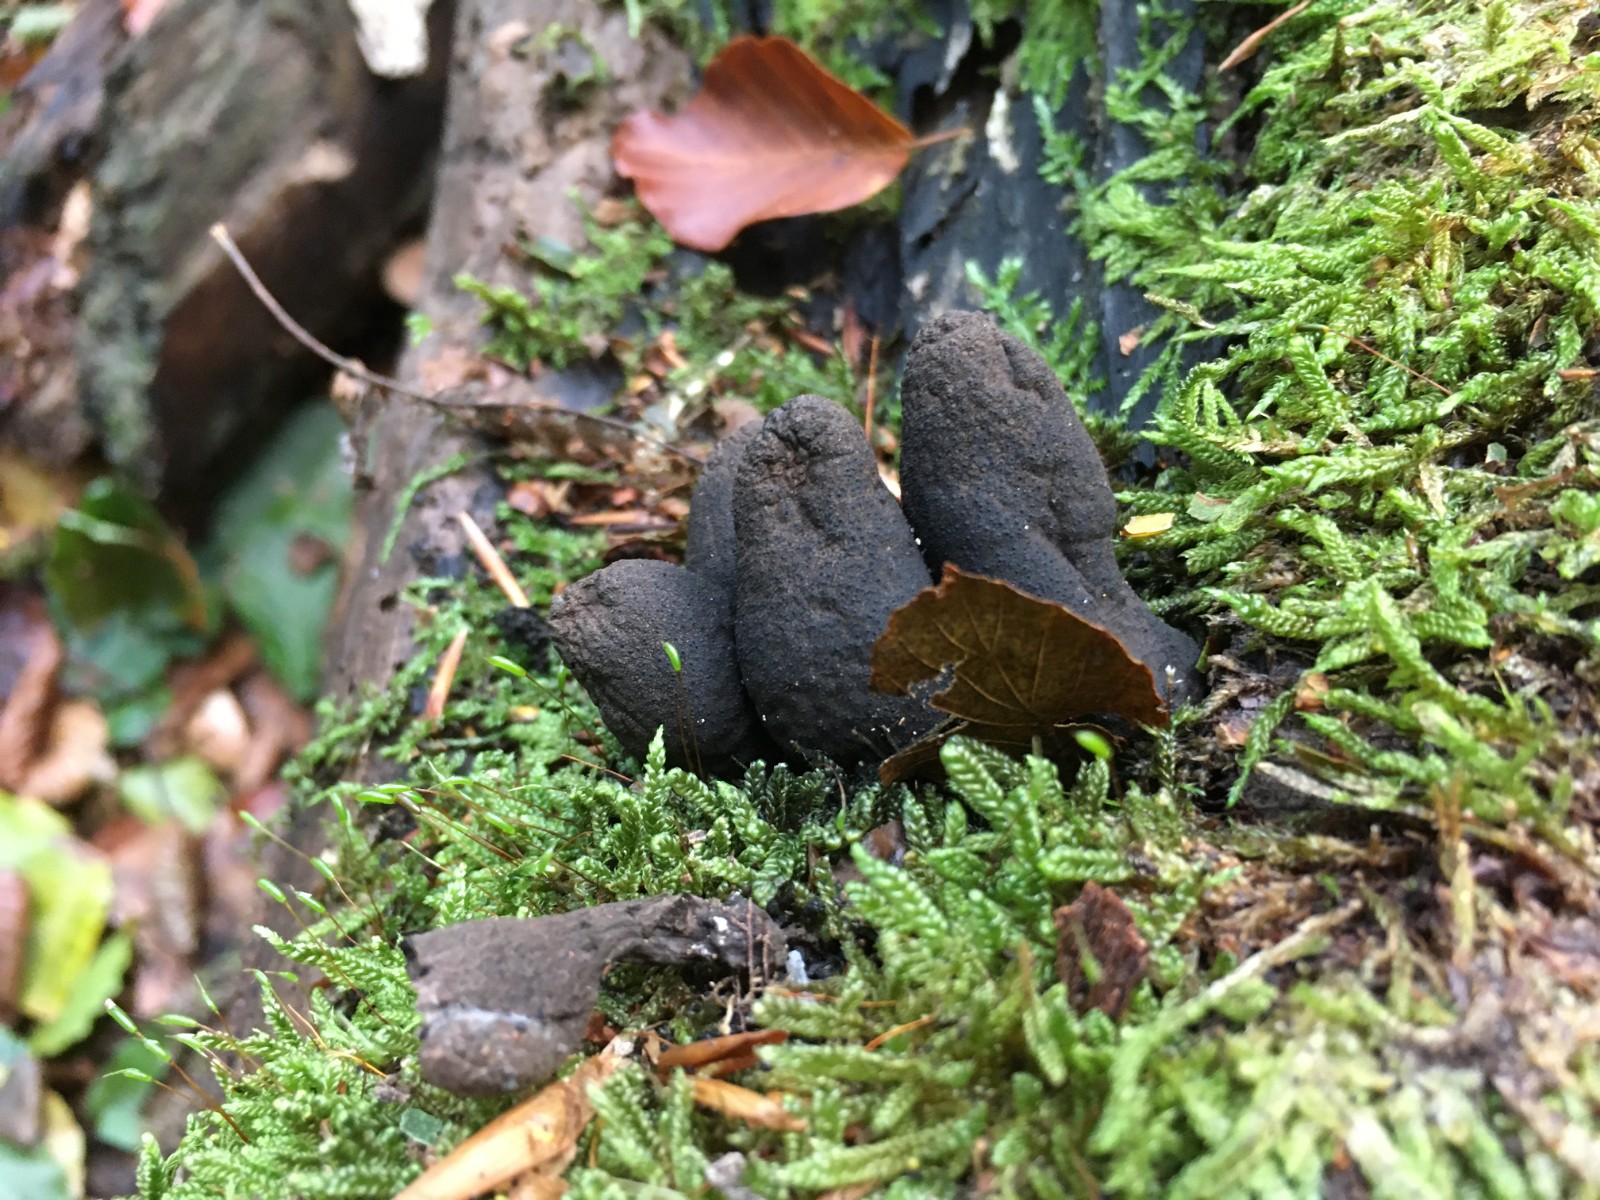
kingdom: Fungi
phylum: Ascomycota
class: Sordariomycetes
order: Xylariales
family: Xylariaceae
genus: Xylaria
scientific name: Xylaria polymorpha
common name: kølle-stødsvamp
